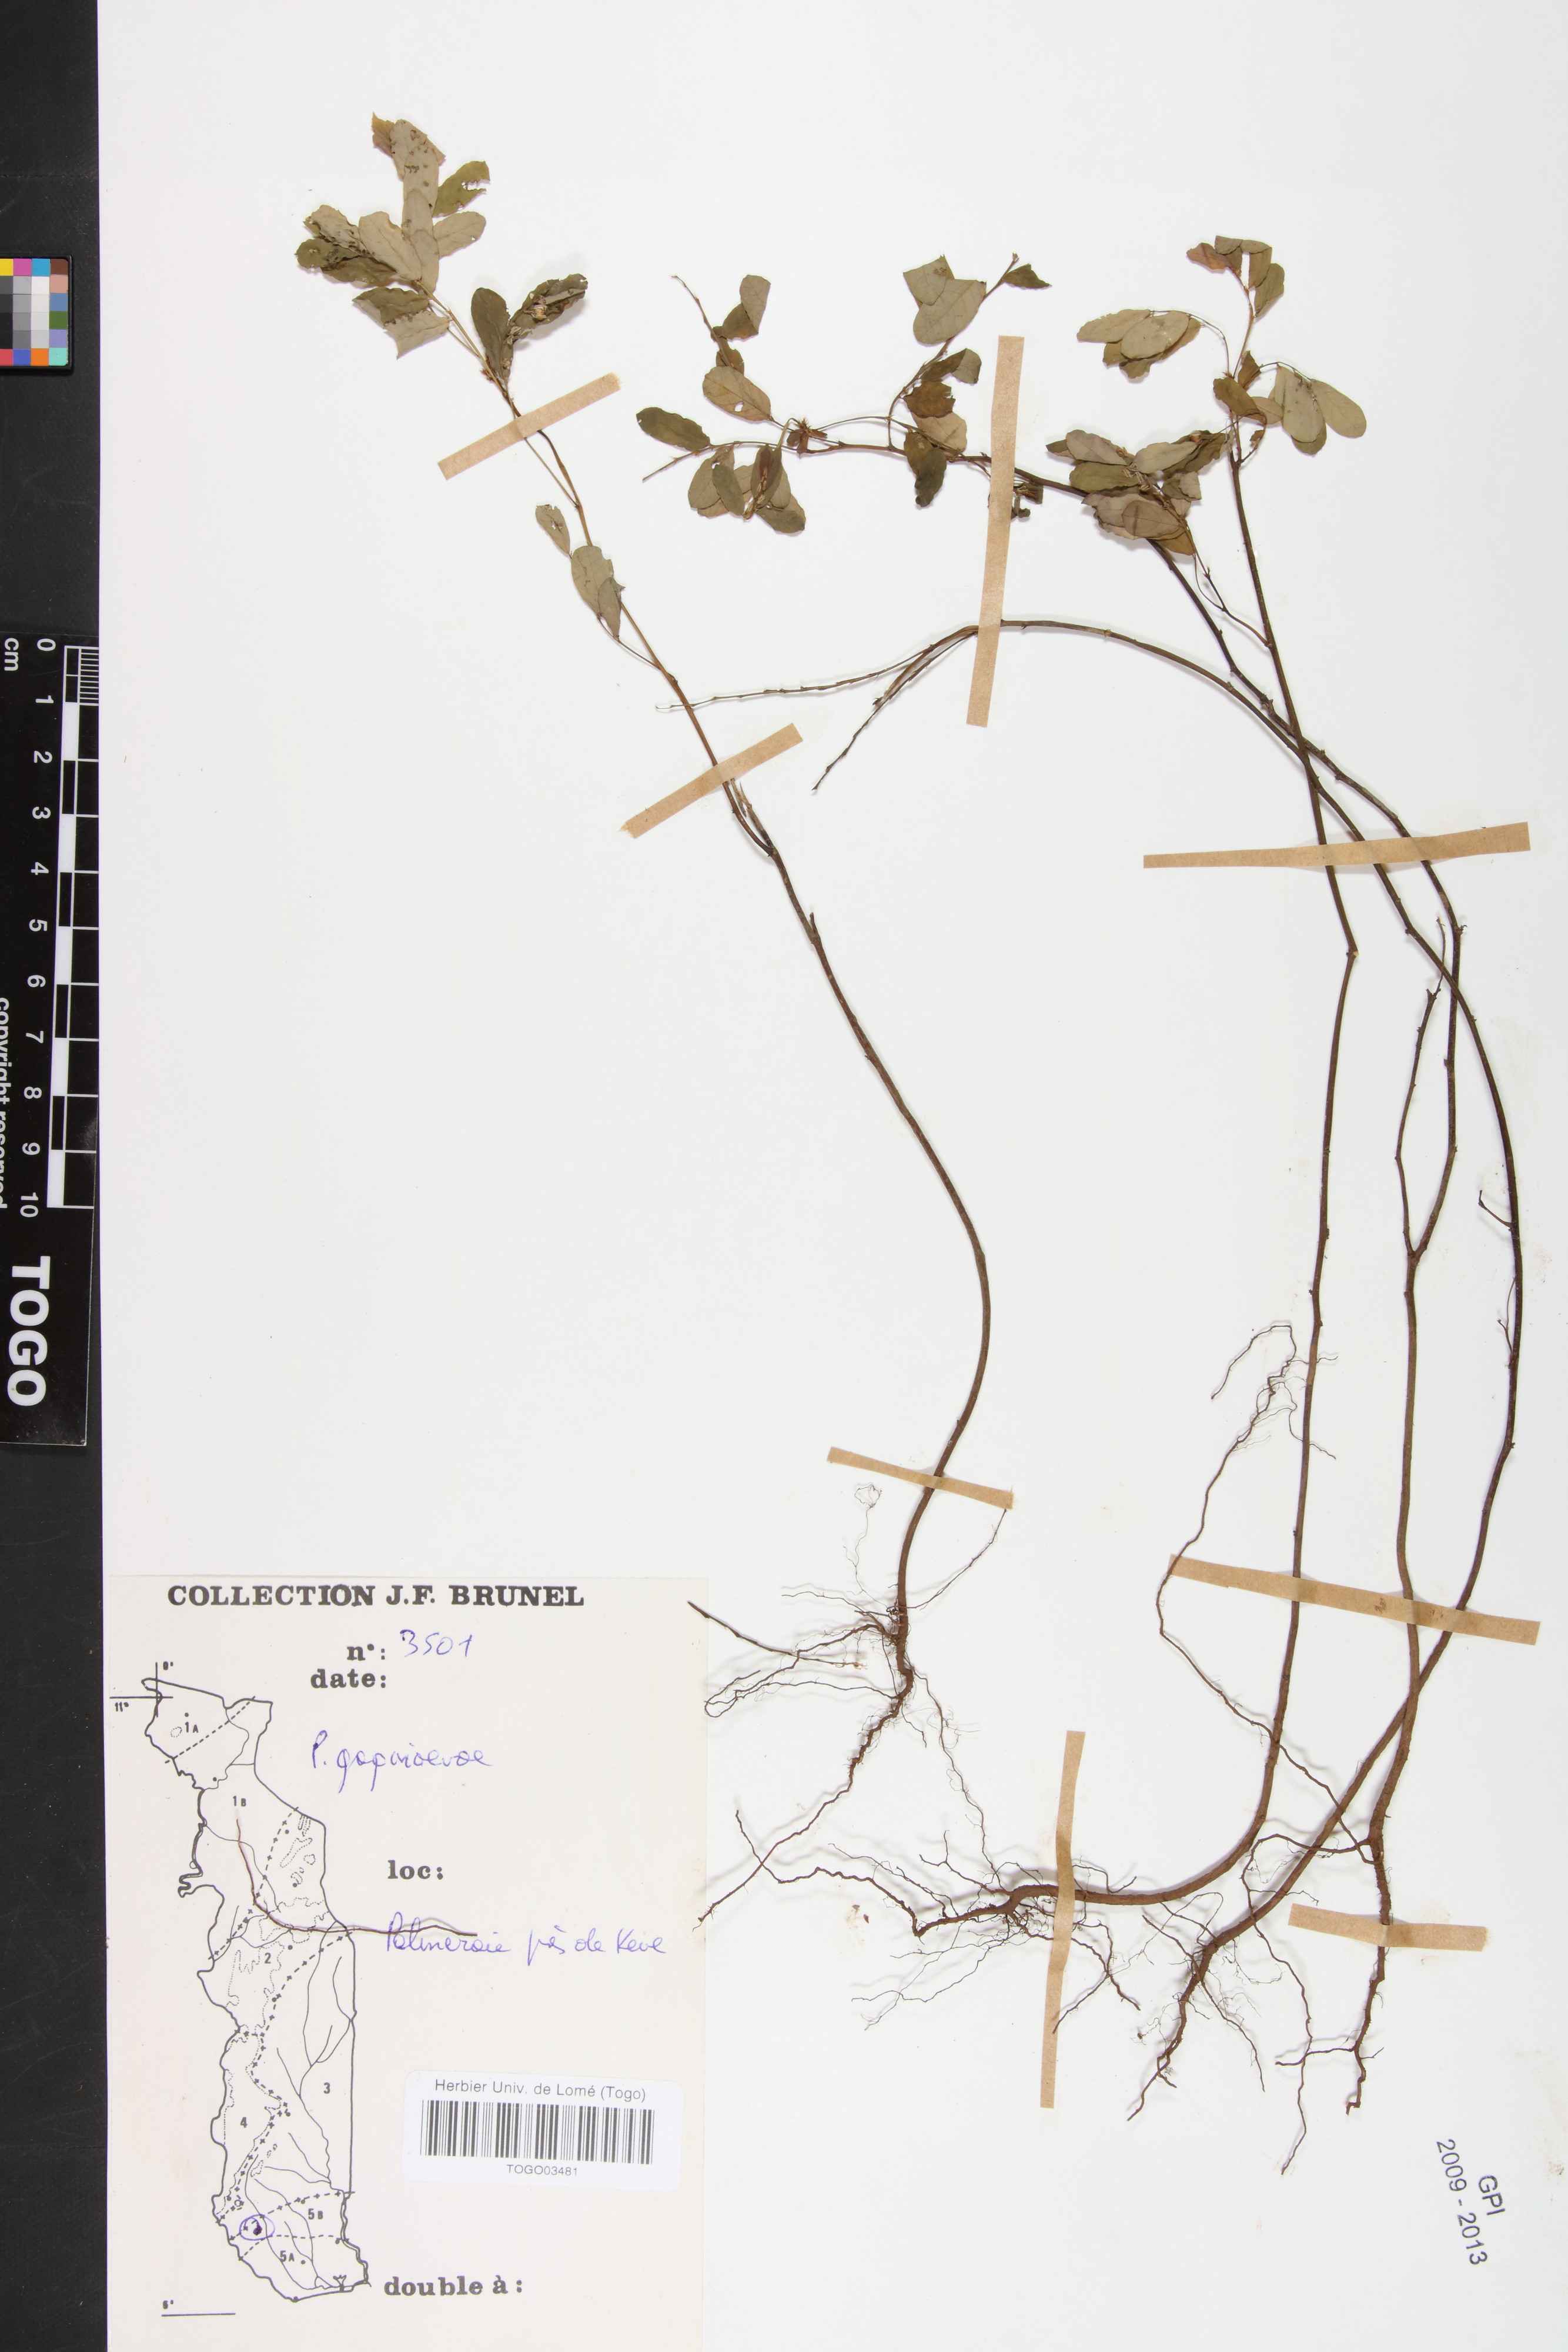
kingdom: Plantae
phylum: Tracheophyta
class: Magnoliopsida
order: Malpighiales
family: Phyllanthaceae
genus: Phyllanthus
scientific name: Phyllanthus gagnioevae
